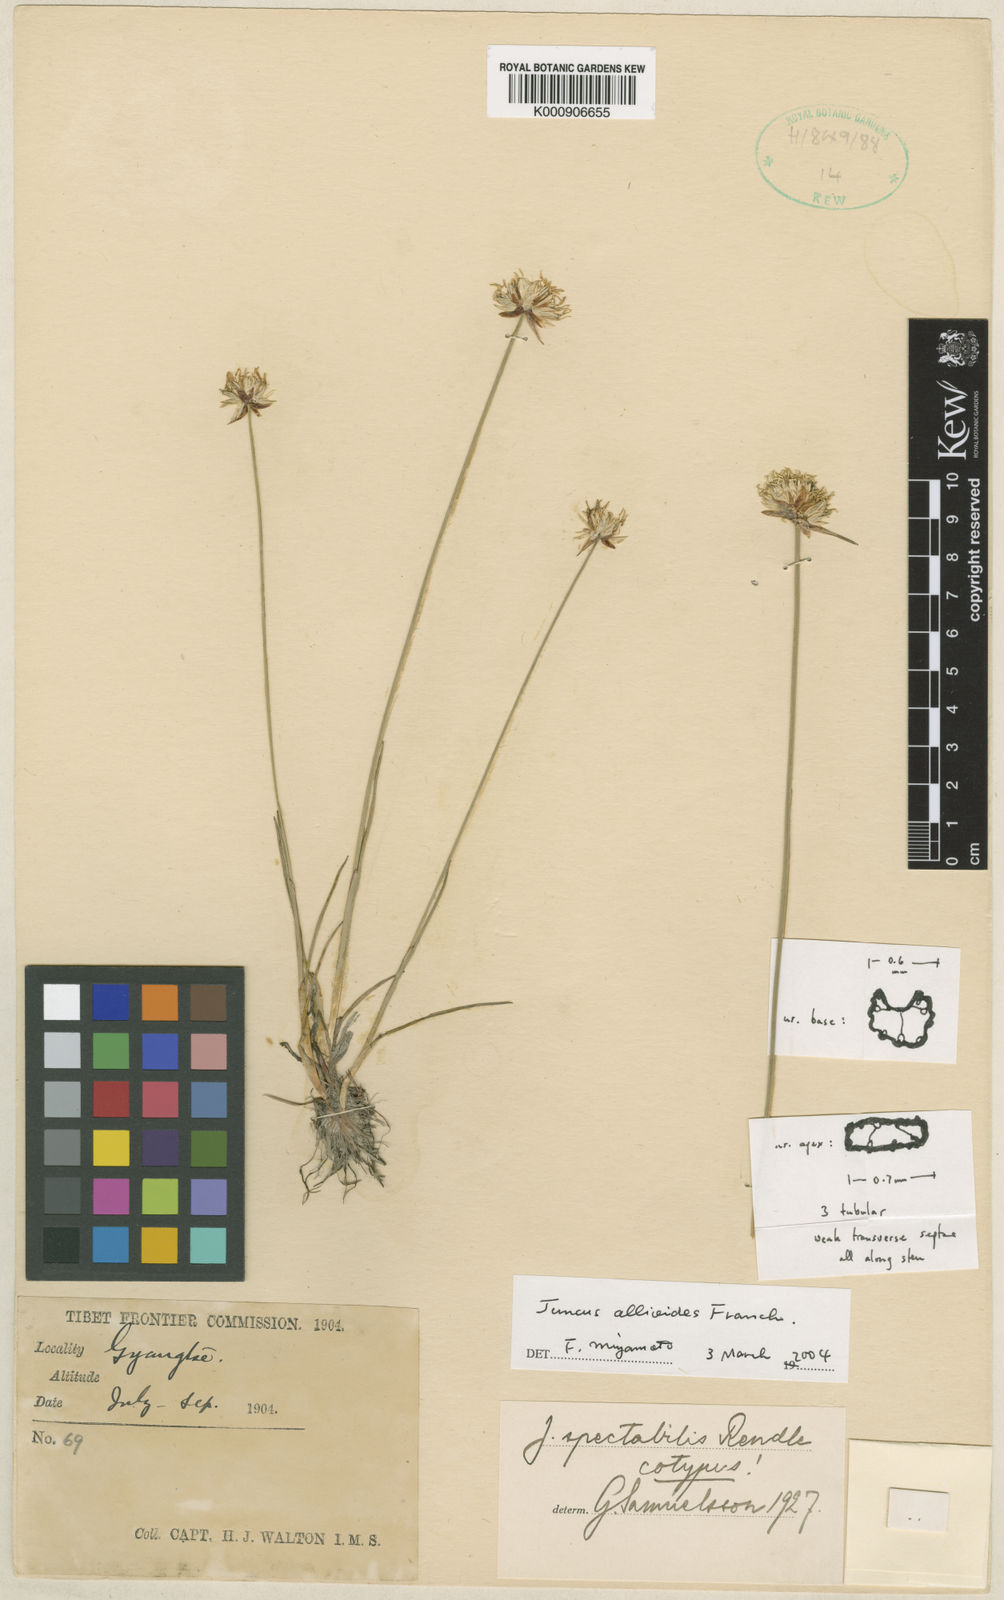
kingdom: Plantae
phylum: Tracheophyta
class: Liliopsida
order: Poales
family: Juncaceae
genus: Juncus
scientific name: Juncus spectabilis
